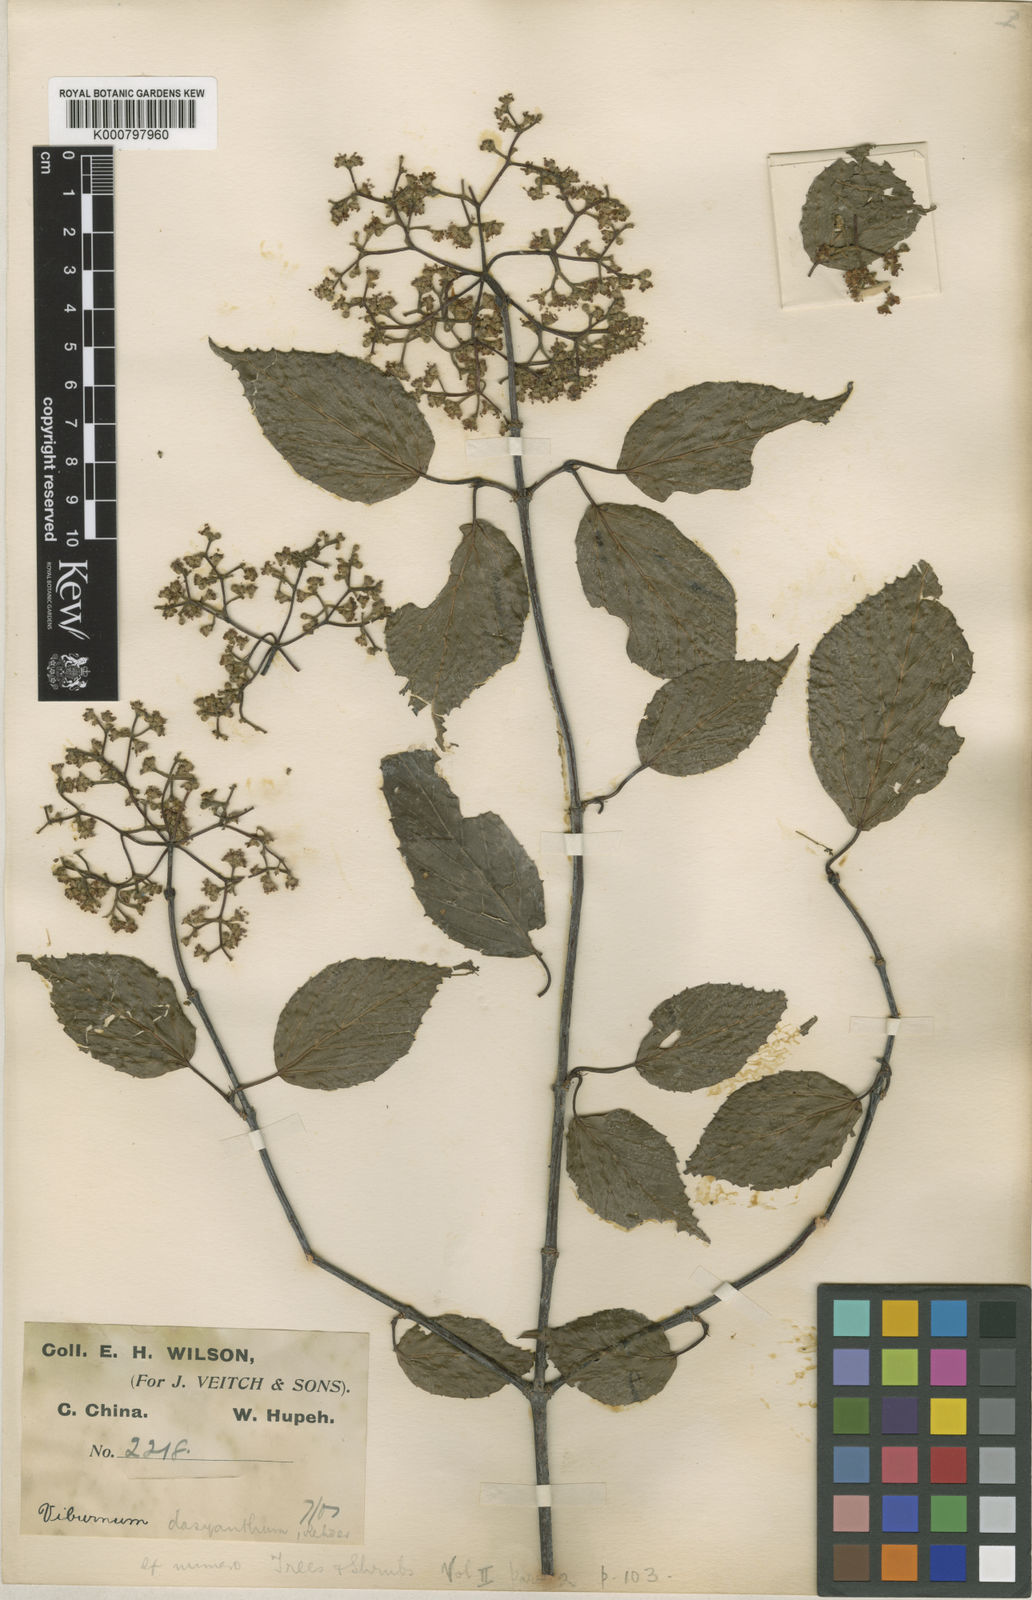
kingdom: Plantae
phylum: Tracheophyta
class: Magnoliopsida
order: Dipsacales
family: Viburnaceae
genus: Viburnum
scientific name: Viburnum betulifolium
